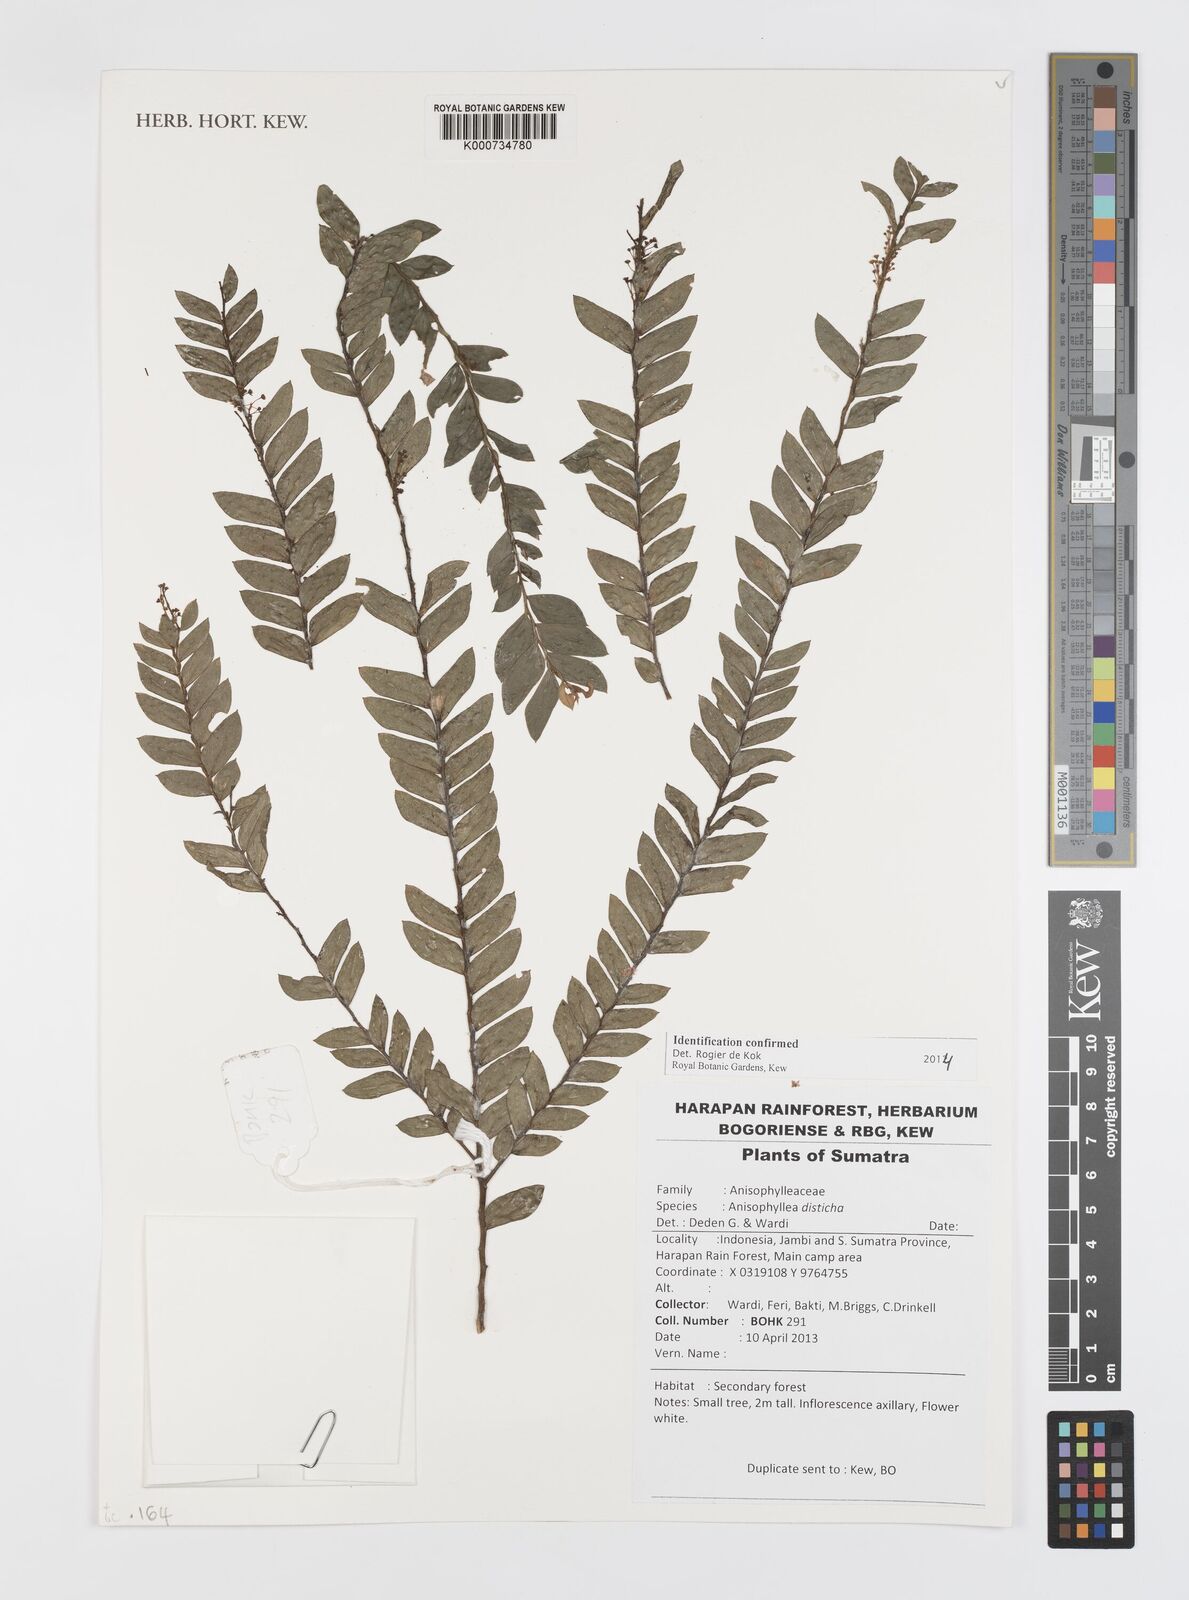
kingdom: Plantae
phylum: Tracheophyta
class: Magnoliopsida
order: Cucurbitales
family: Anisophylleaceae
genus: Anisophyllea
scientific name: Anisophyllea disticha
